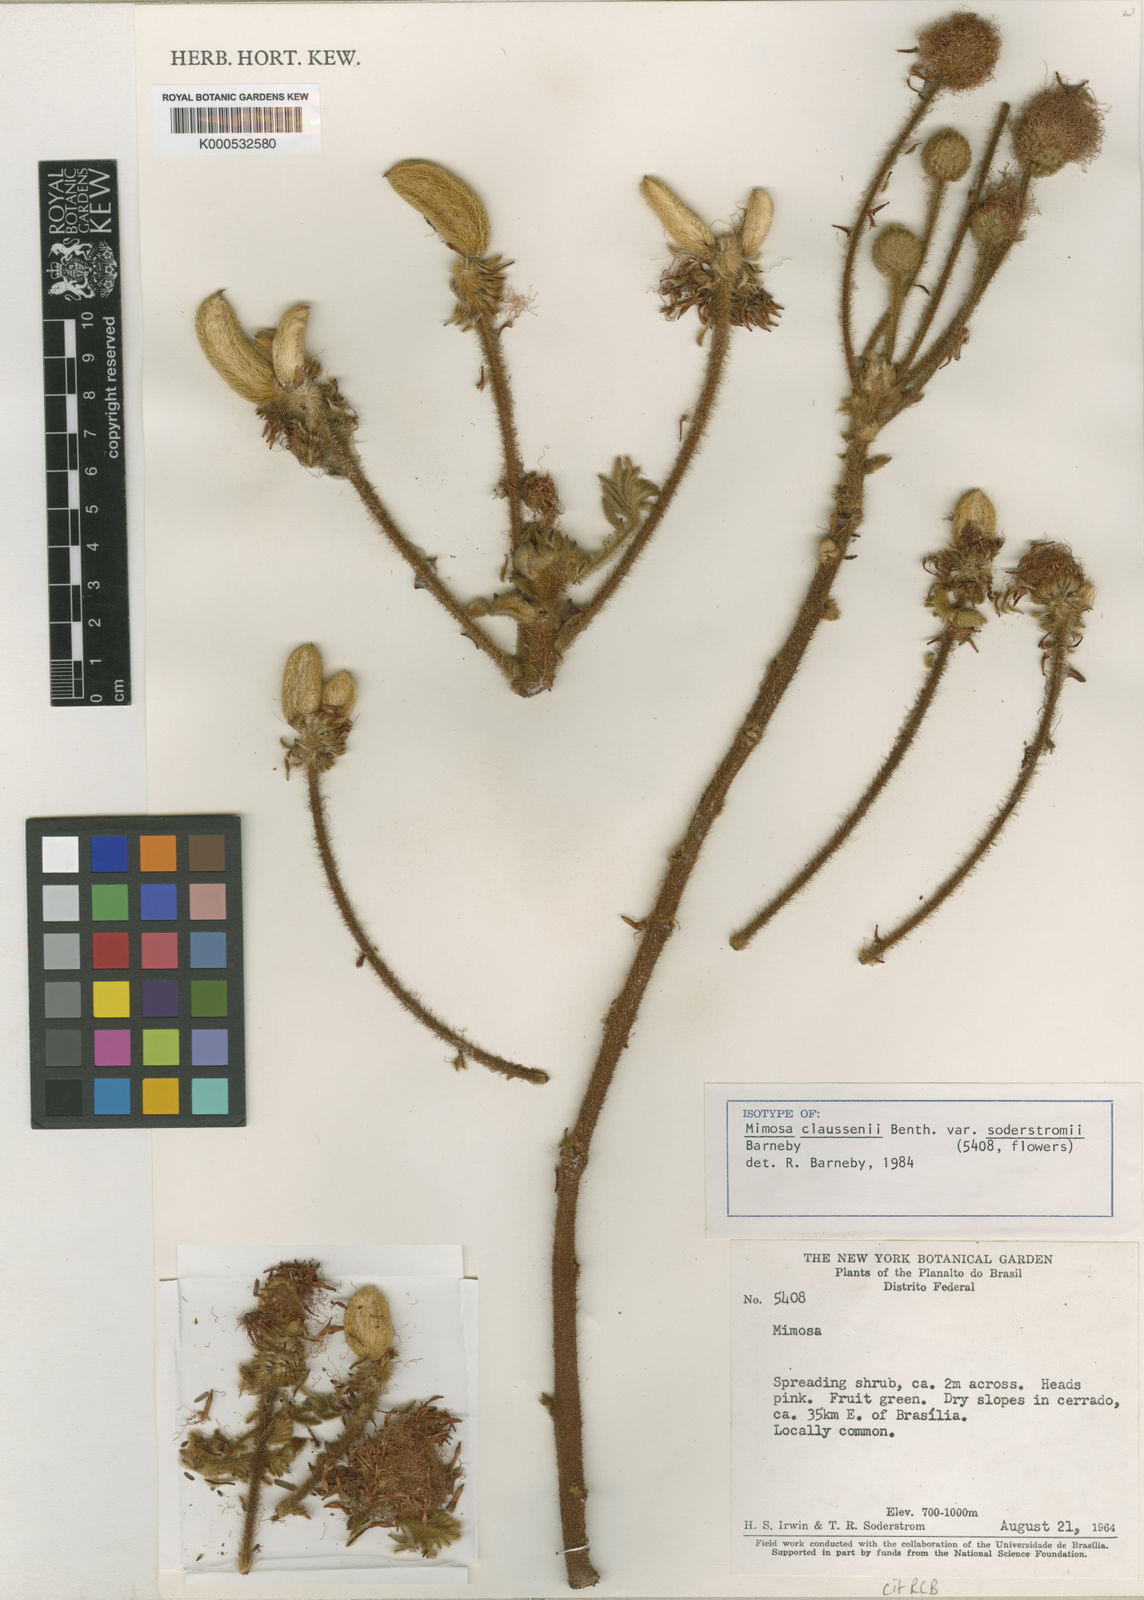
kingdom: Plantae
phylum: Tracheophyta
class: Magnoliopsida
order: Fabales
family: Fabaceae
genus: Mimosa
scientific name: Mimosa claussenii
